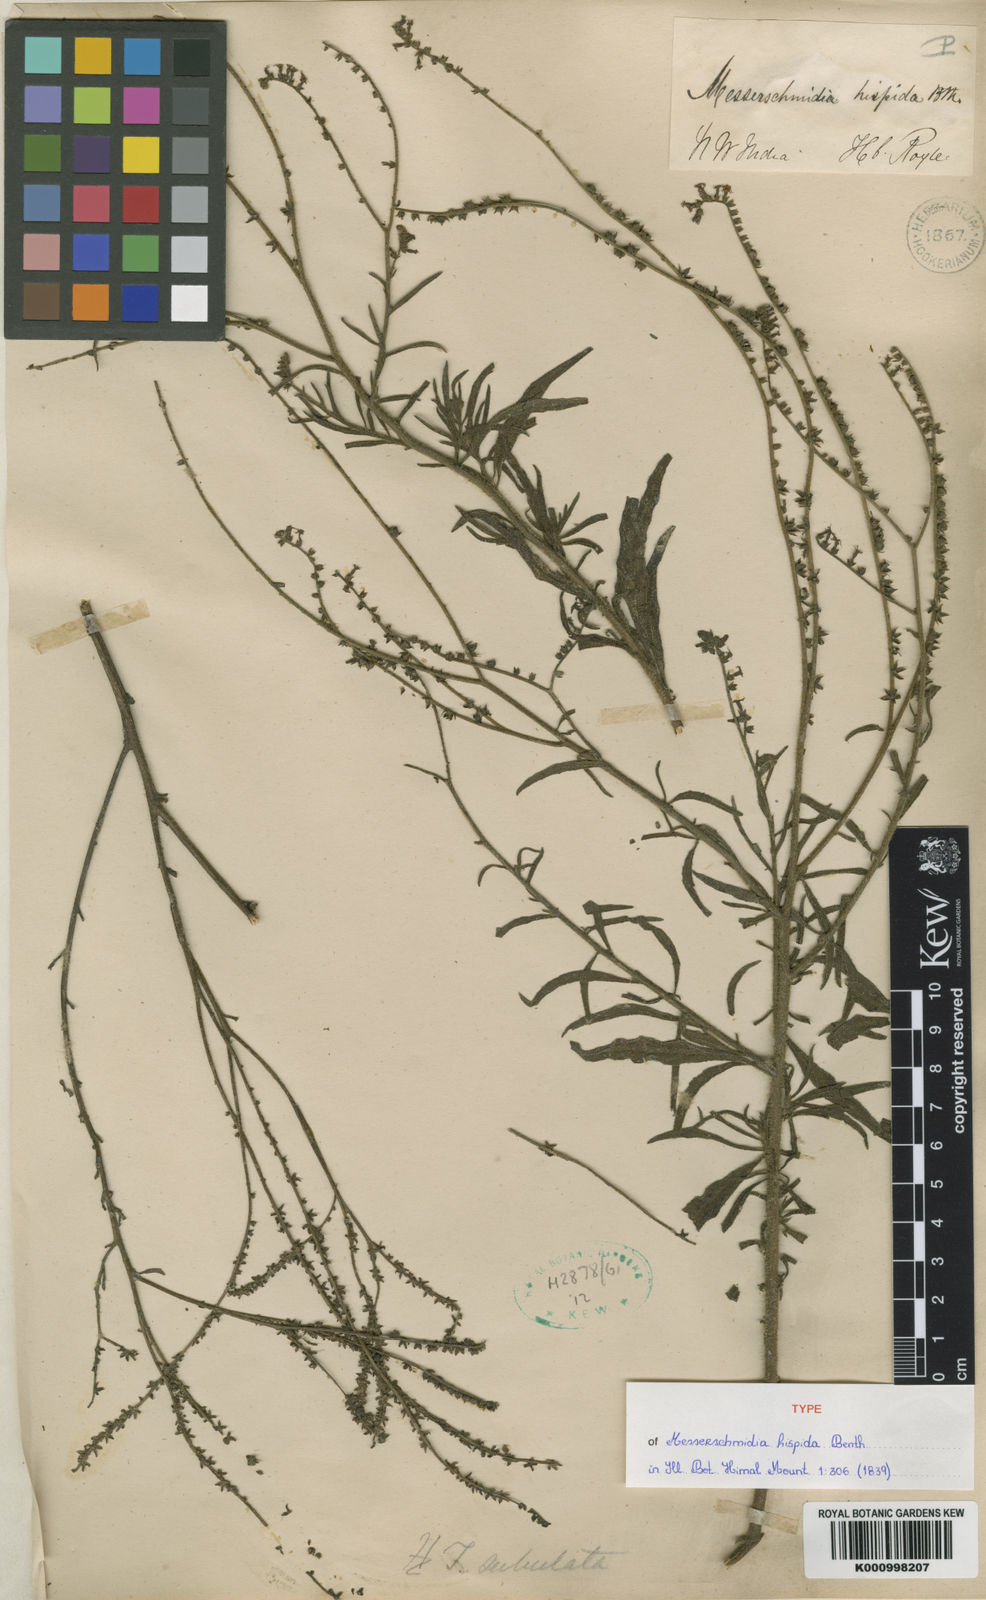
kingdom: Plantae
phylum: Tracheophyta
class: Magnoliopsida
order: Boraginales
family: Heliotropiaceae
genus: Heliotropium
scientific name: Heliotropium zeylanicum
